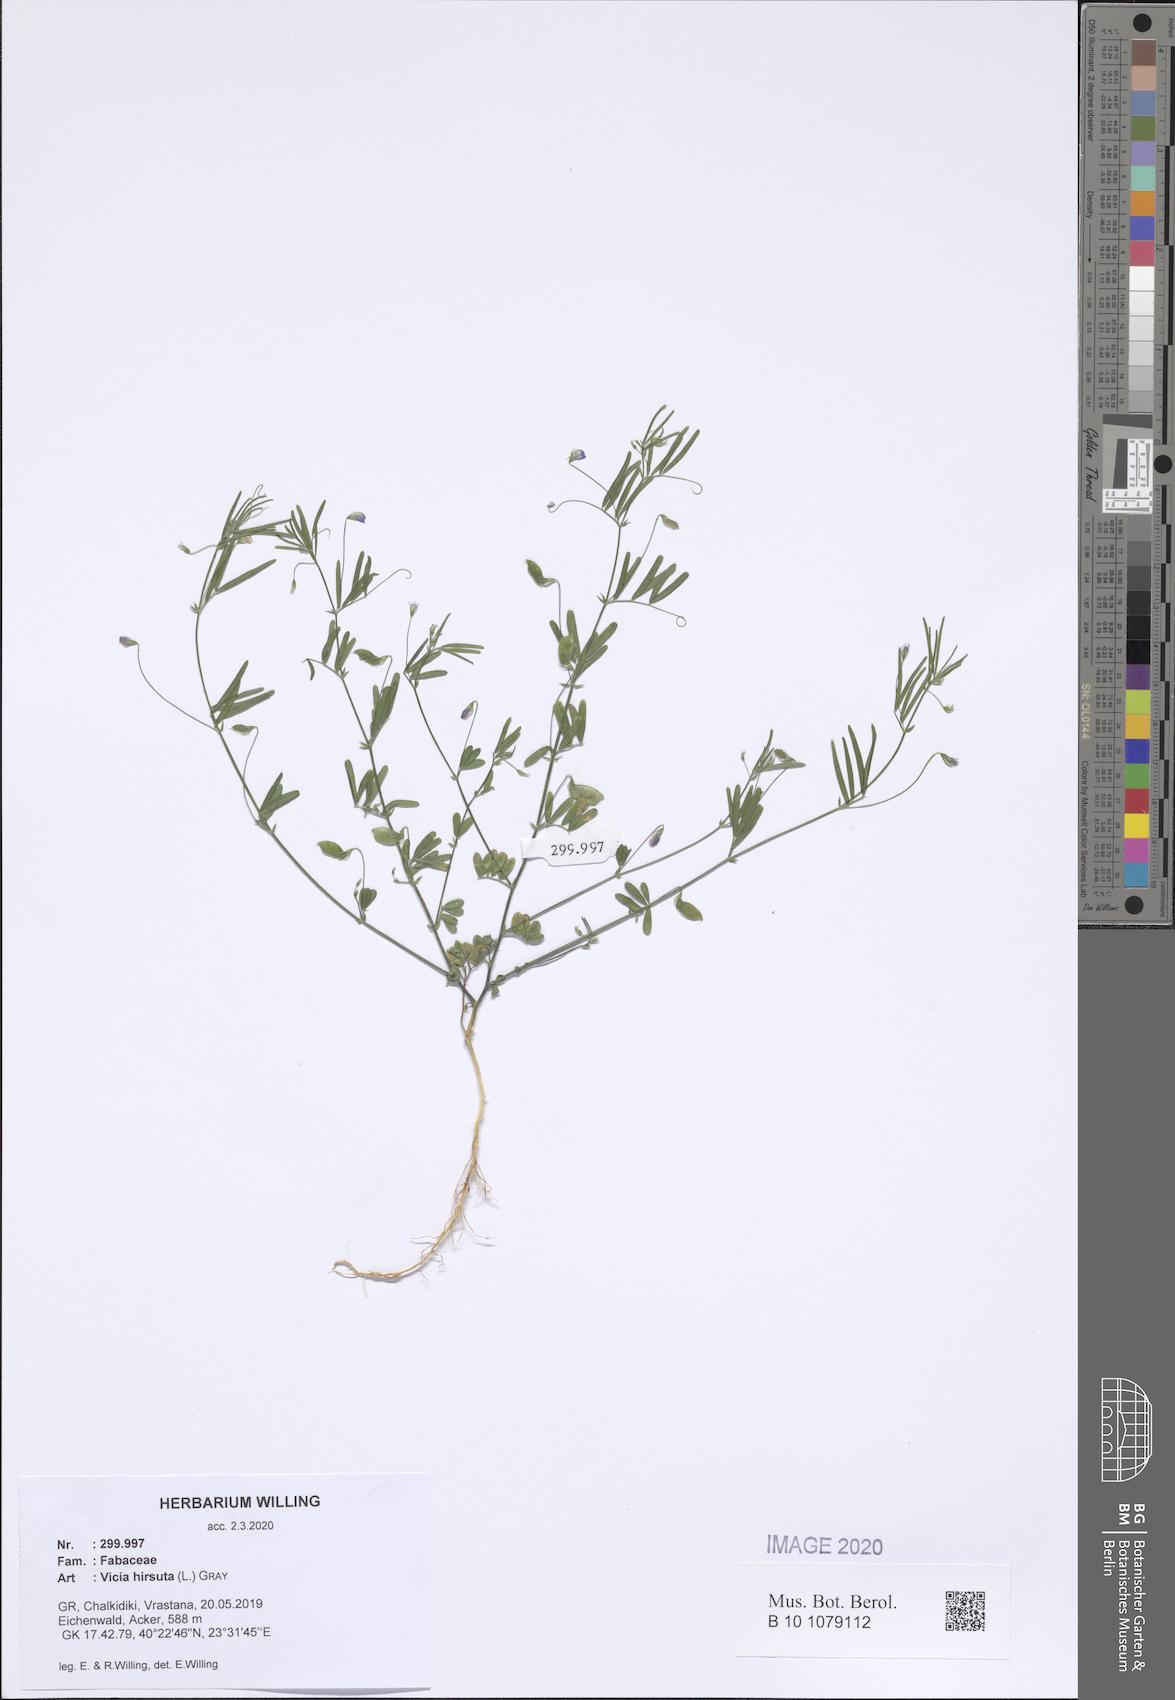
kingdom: Plantae
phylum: Tracheophyta
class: Magnoliopsida
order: Fabales
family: Fabaceae
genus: Vicia
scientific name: Vicia hirsuta
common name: Tiny vetch
